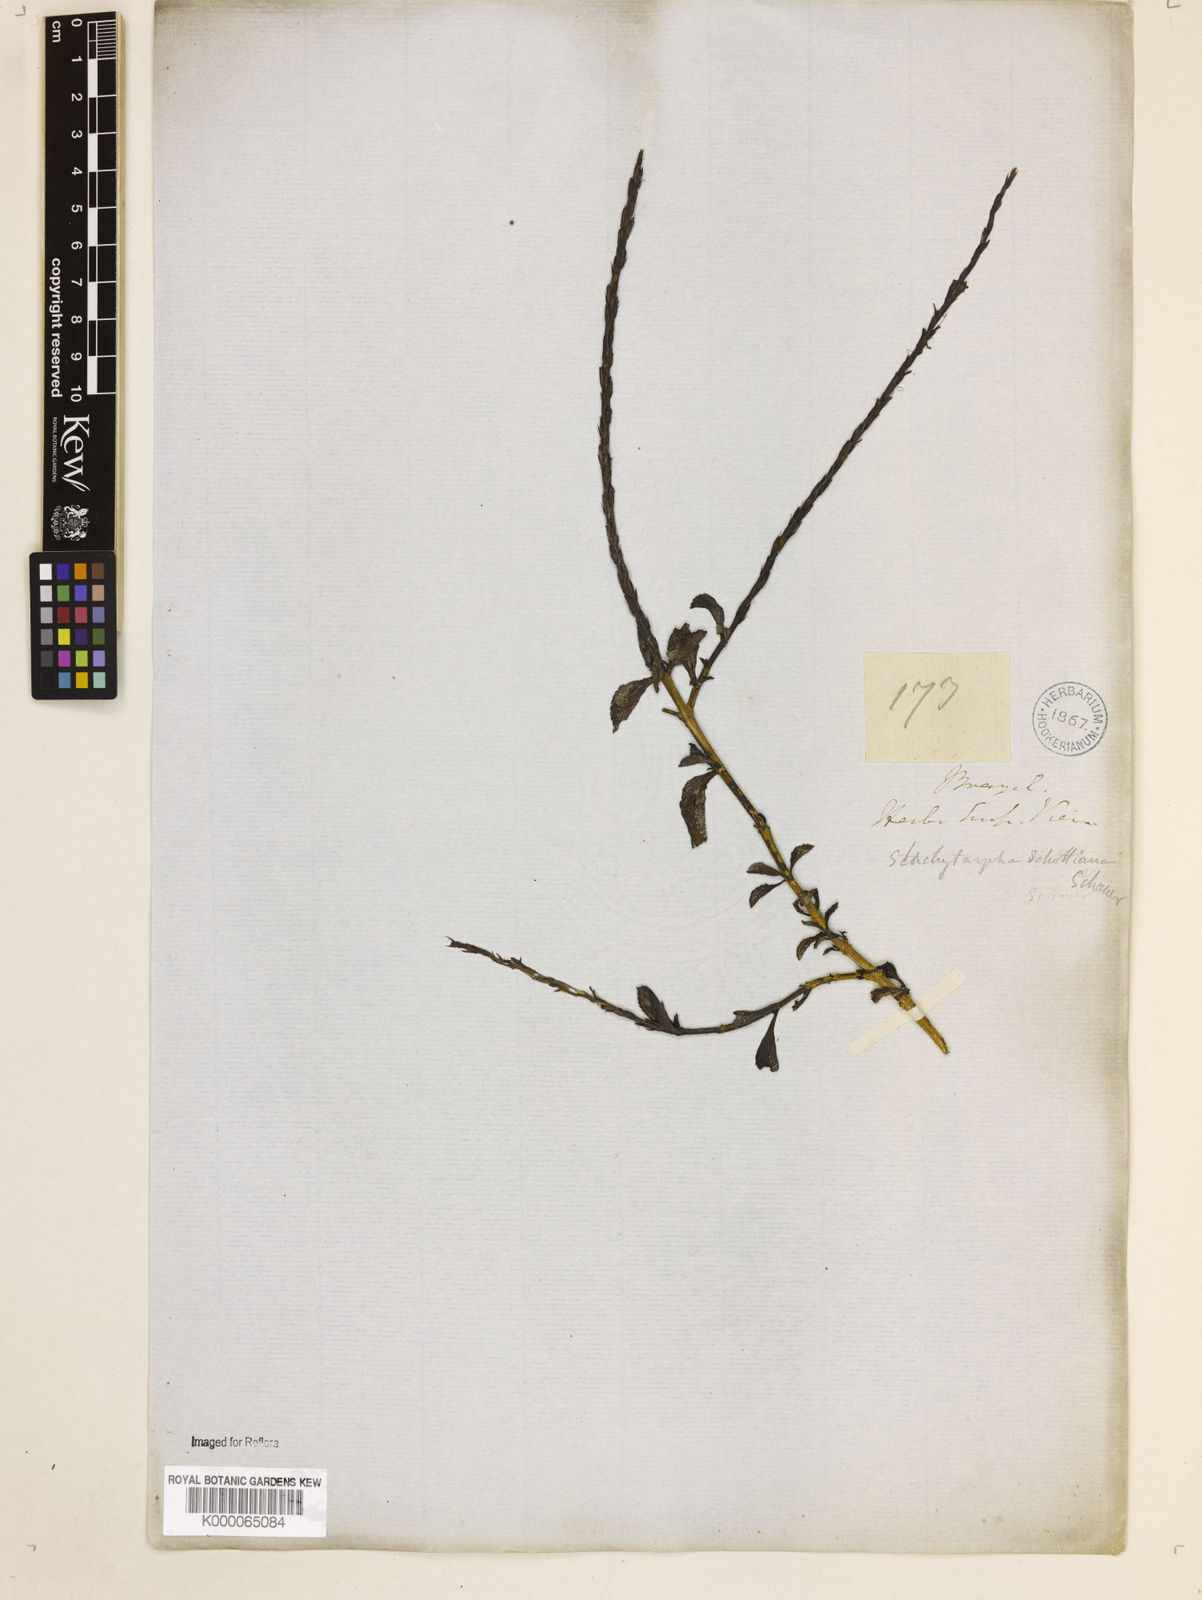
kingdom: Plantae
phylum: Tracheophyta
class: Magnoliopsida
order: Lamiales
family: Verbenaceae
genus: Stachytarpheta
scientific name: Stachytarpheta schottiana
